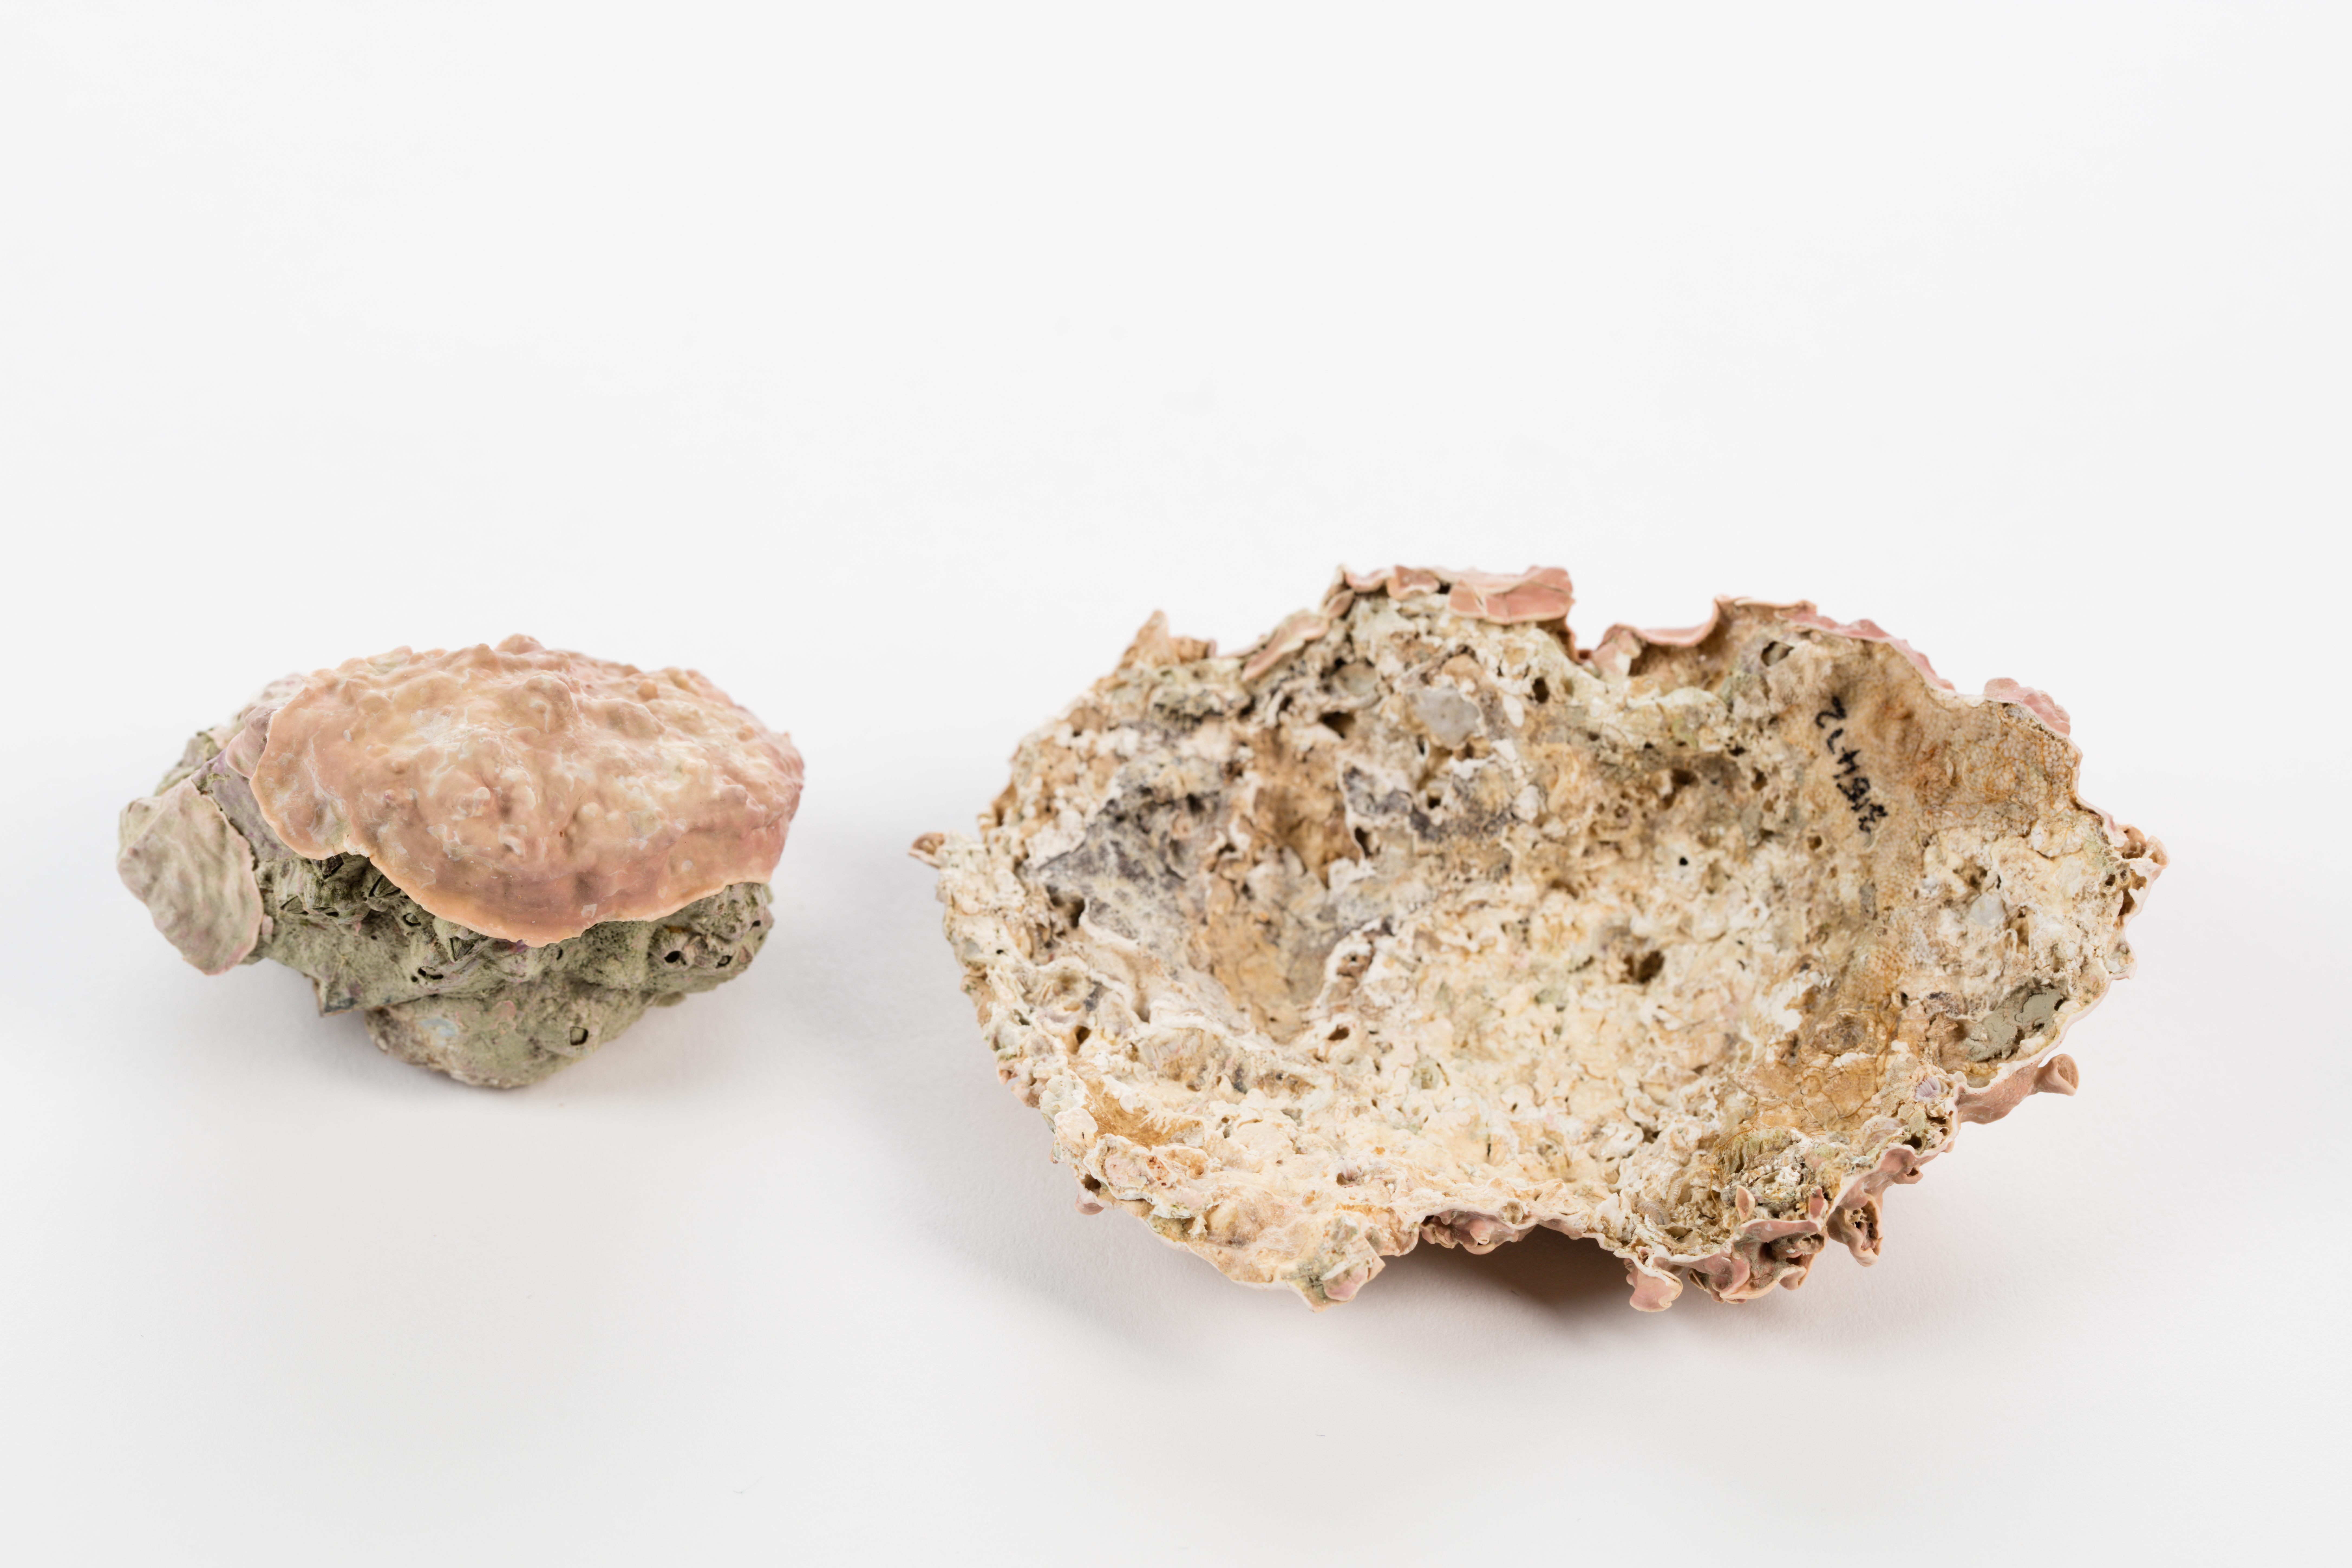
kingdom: Plantae
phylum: Rhodophyta
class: Florideophyceae
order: Corallinales
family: Mesophyllumaceae
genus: Mesophyllum
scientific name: Mesophyllum
